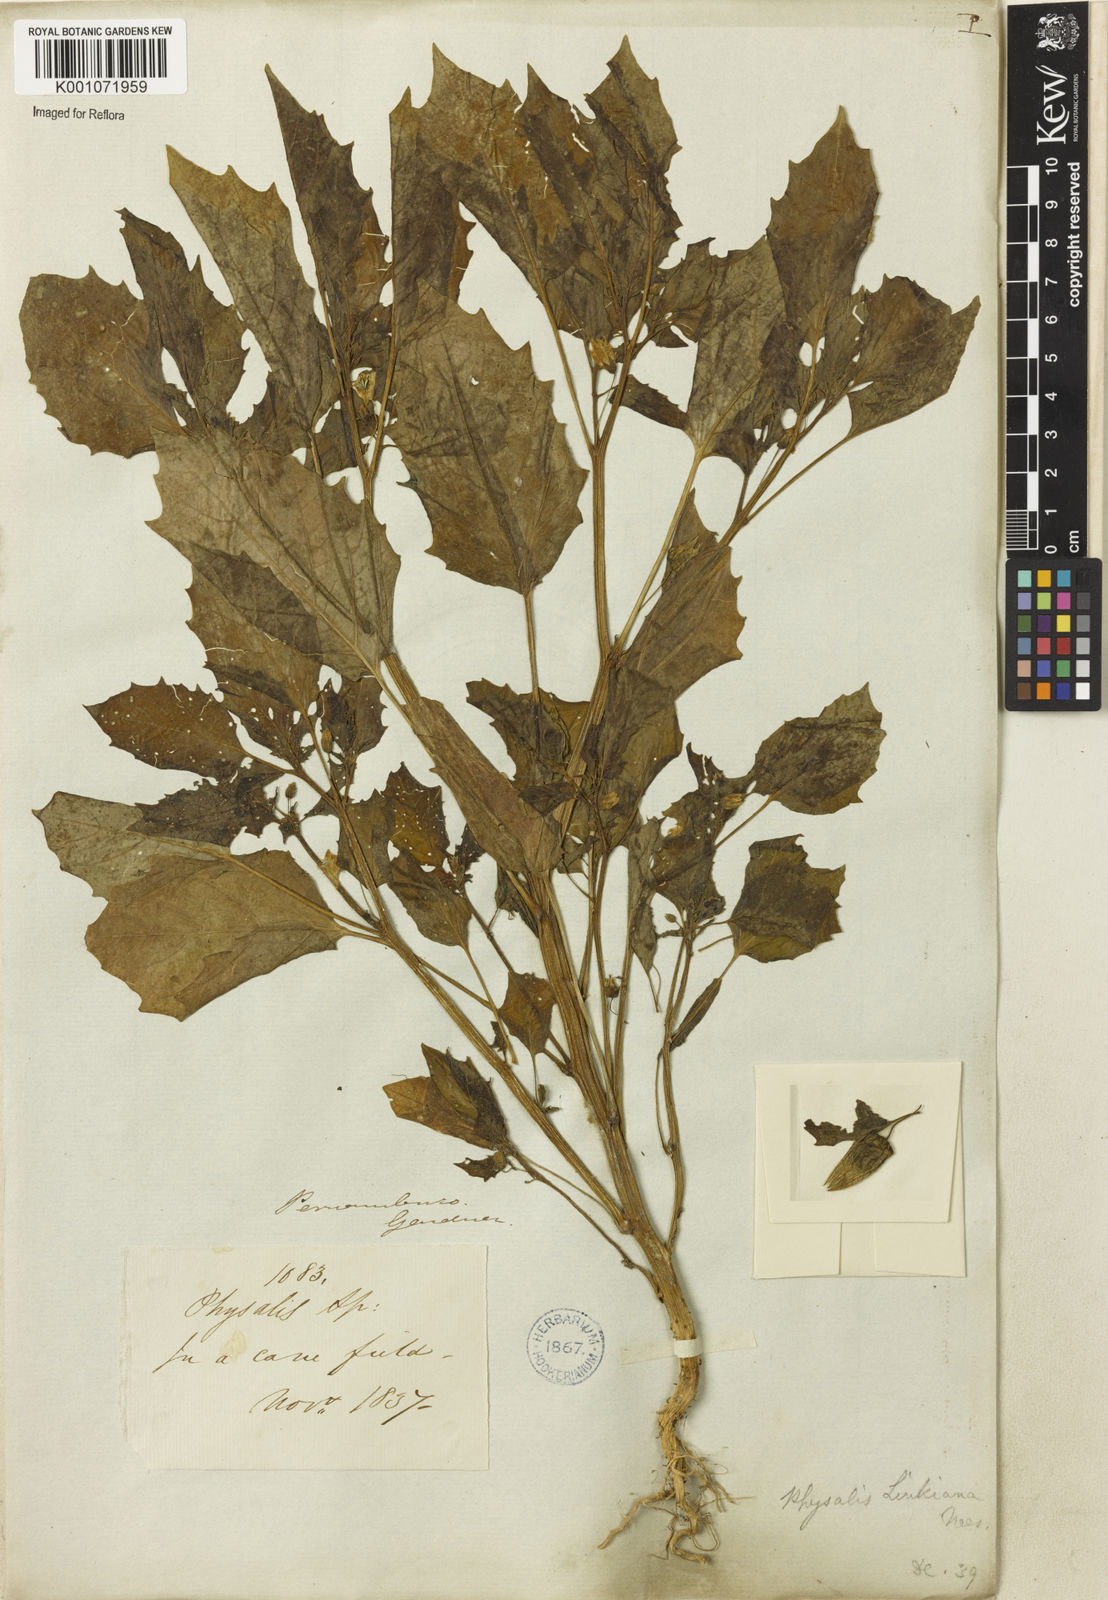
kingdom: Plantae
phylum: Tracheophyta
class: Magnoliopsida
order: Solanales
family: Solanaceae
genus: Physalis
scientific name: Physalis angulata
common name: Angular winter-cherry
